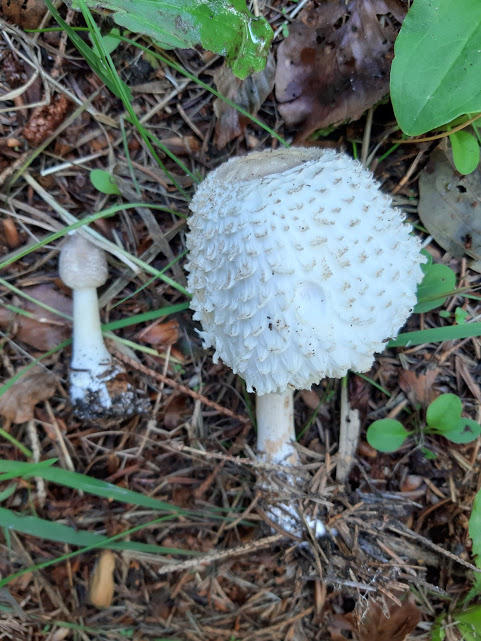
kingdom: Fungi
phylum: Basidiomycota
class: Agaricomycetes
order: Agaricales
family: Agaricaceae
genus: Leucoagaricus
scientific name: Leucoagaricus nympharum
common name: gran-silkehat
